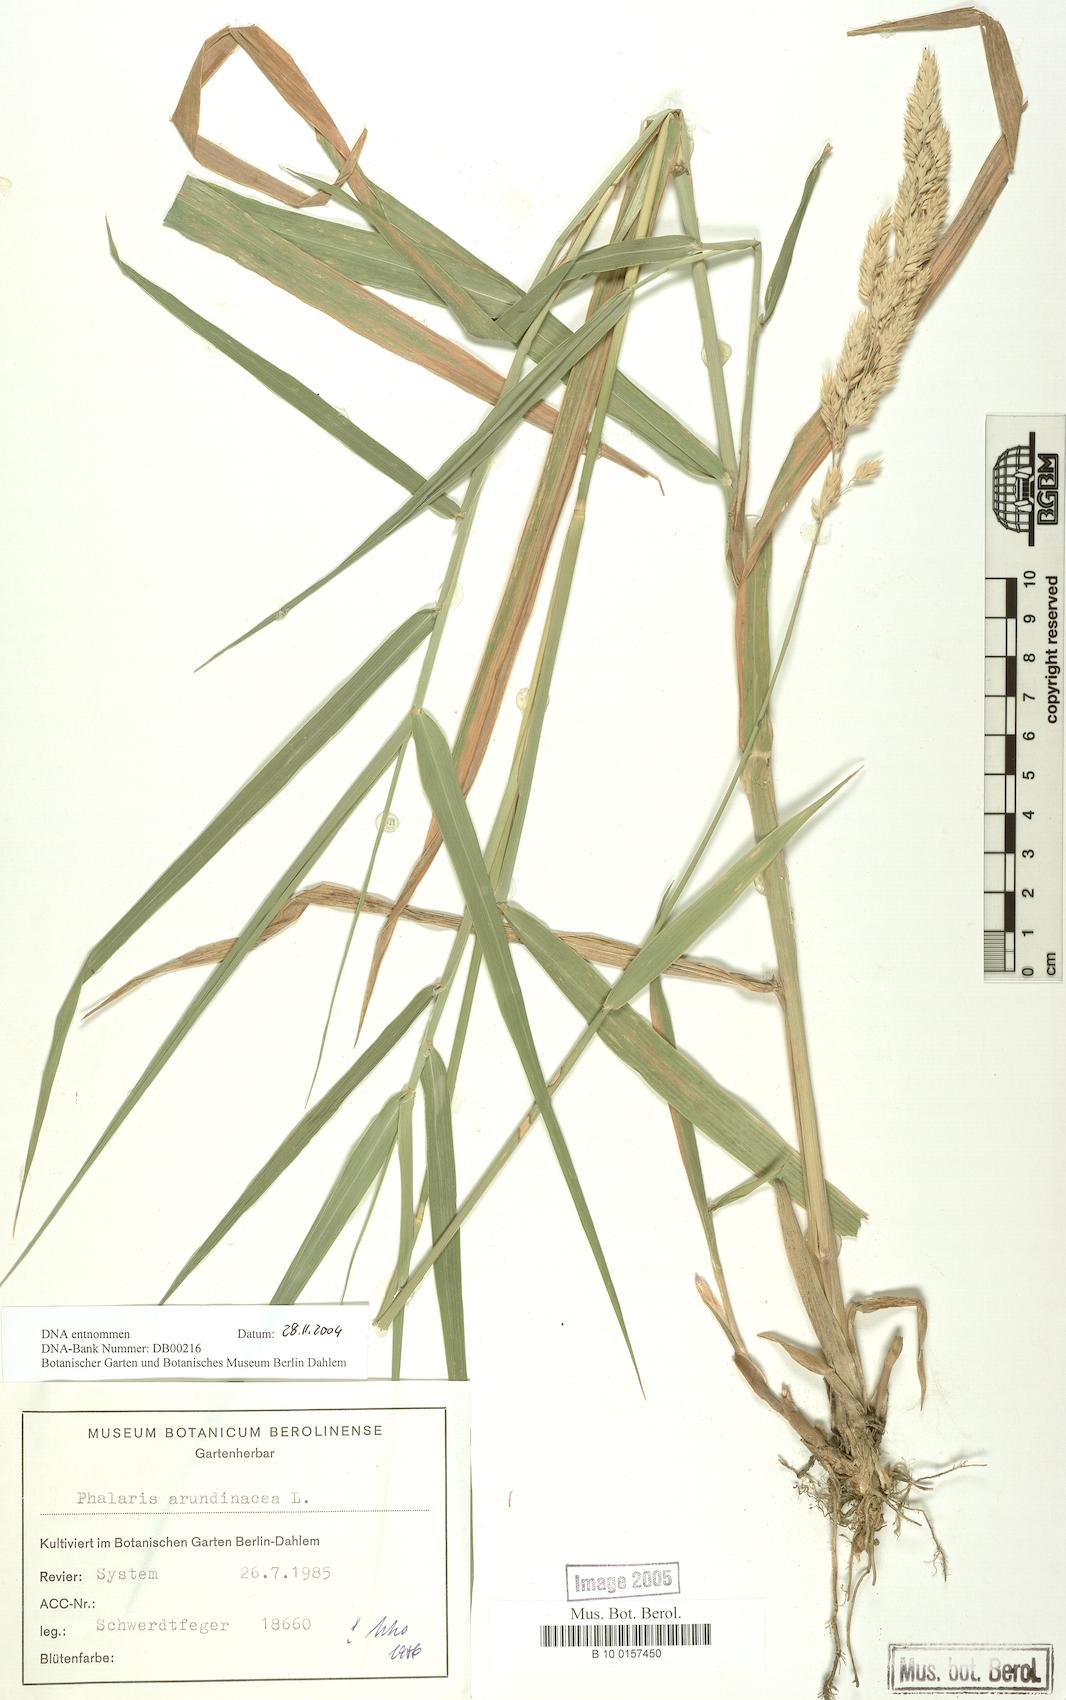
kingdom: Plantae
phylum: Tracheophyta
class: Liliopsida
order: Poales
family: Poaceae
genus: Phalaris
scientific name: Phalaris arundinacea
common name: Reed canary-grass
